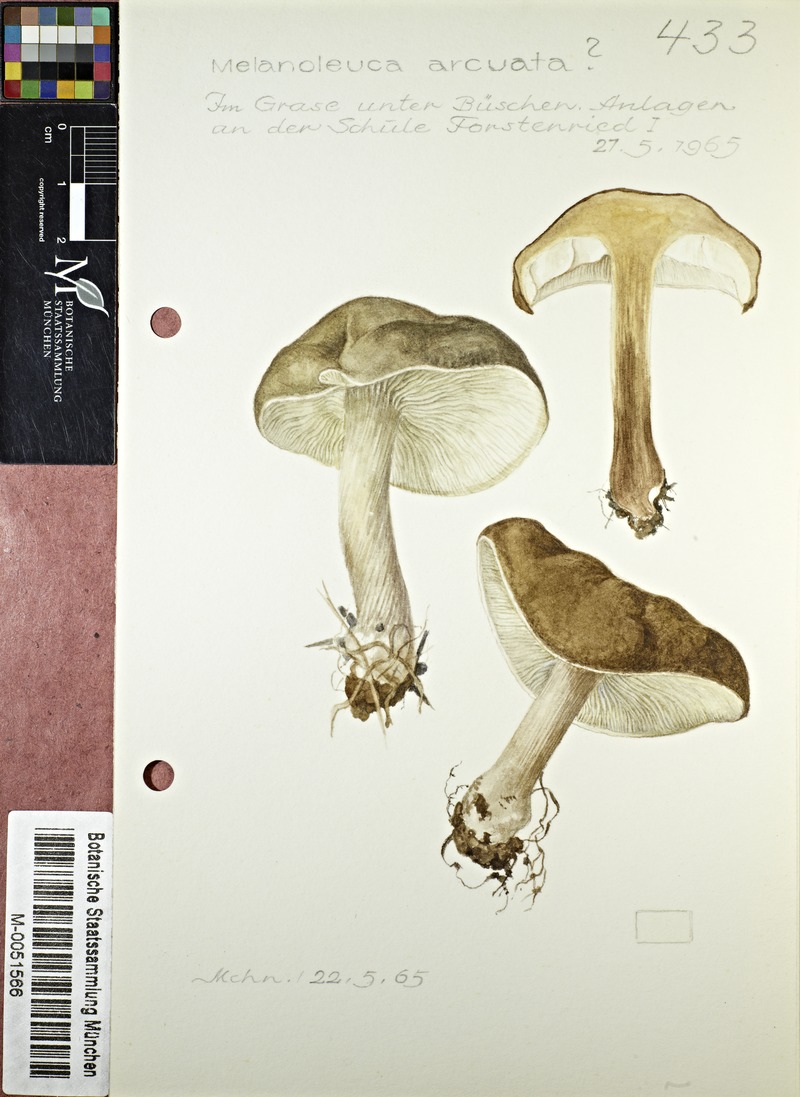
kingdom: Fungi
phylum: Basidiomycota
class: Agaricomycetes
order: Agaricales
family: Tricholomataceae
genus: Melanoleuca
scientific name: Melanoleuca arcuata
